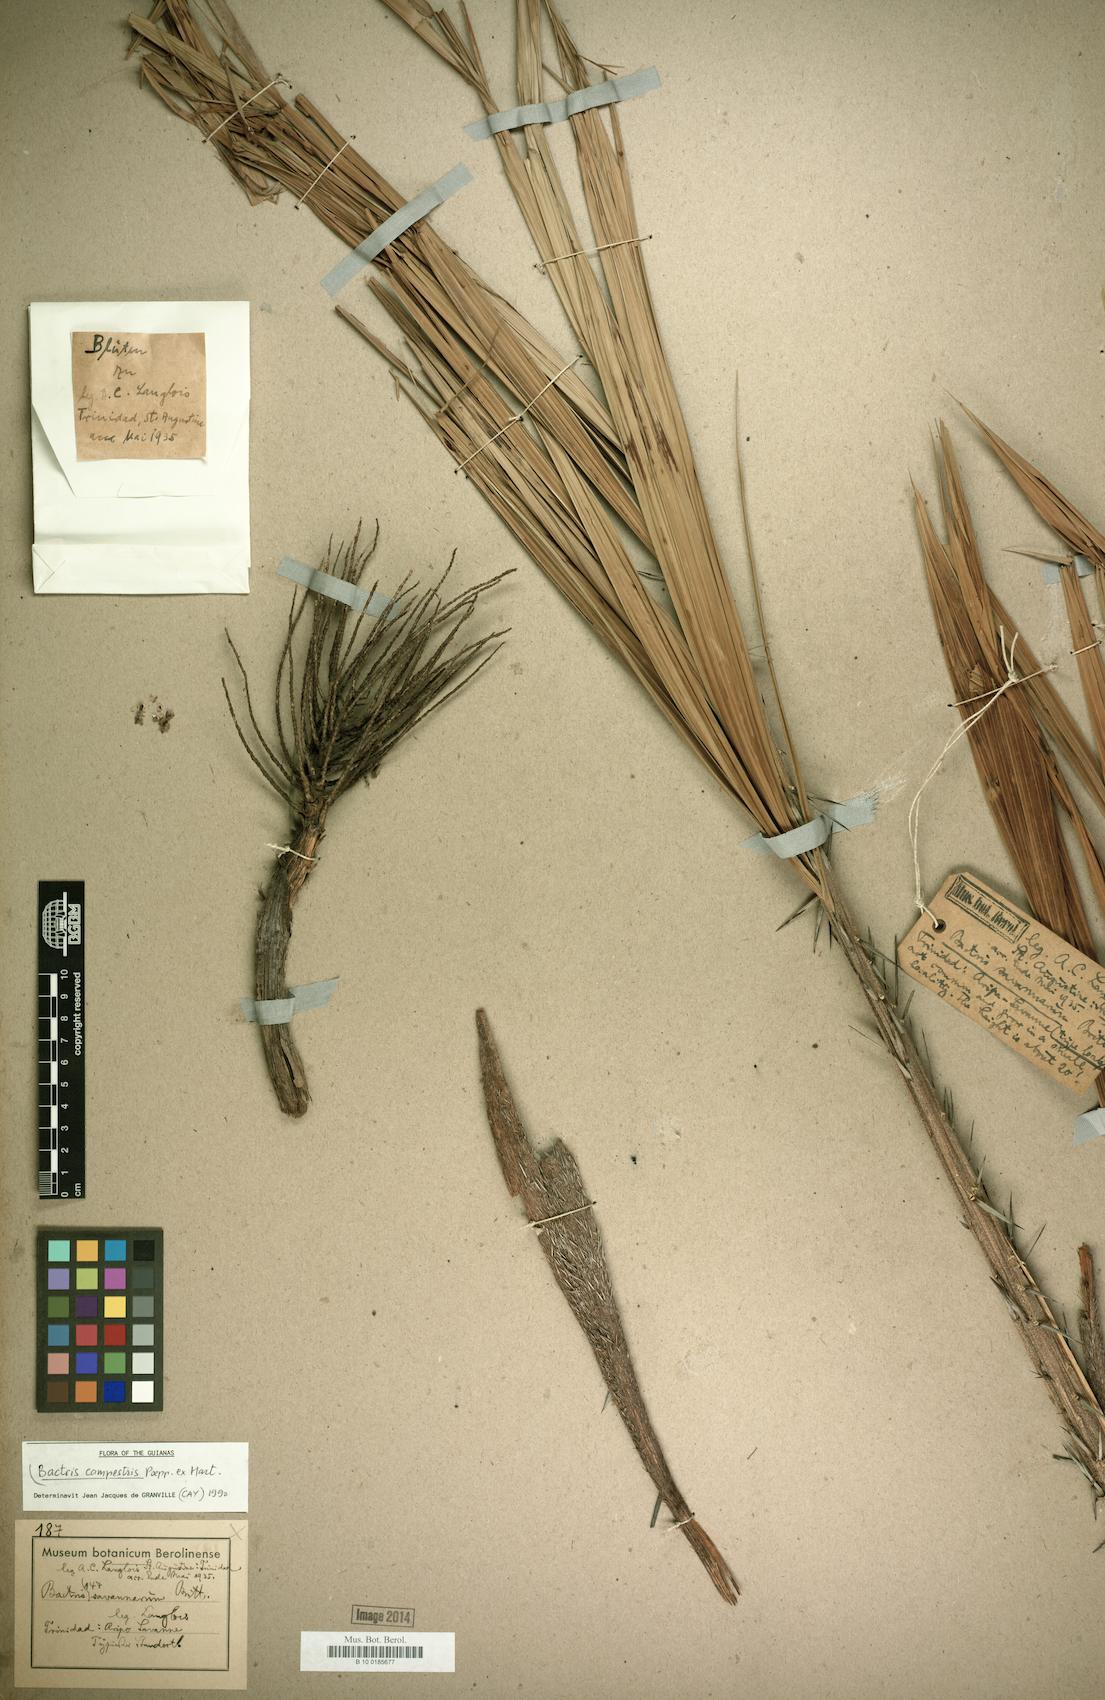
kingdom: Plantae
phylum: Tracheophyta
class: Liliopsida
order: Arecales
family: Arecaceae
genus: Bactris
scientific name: Bactris campestris
